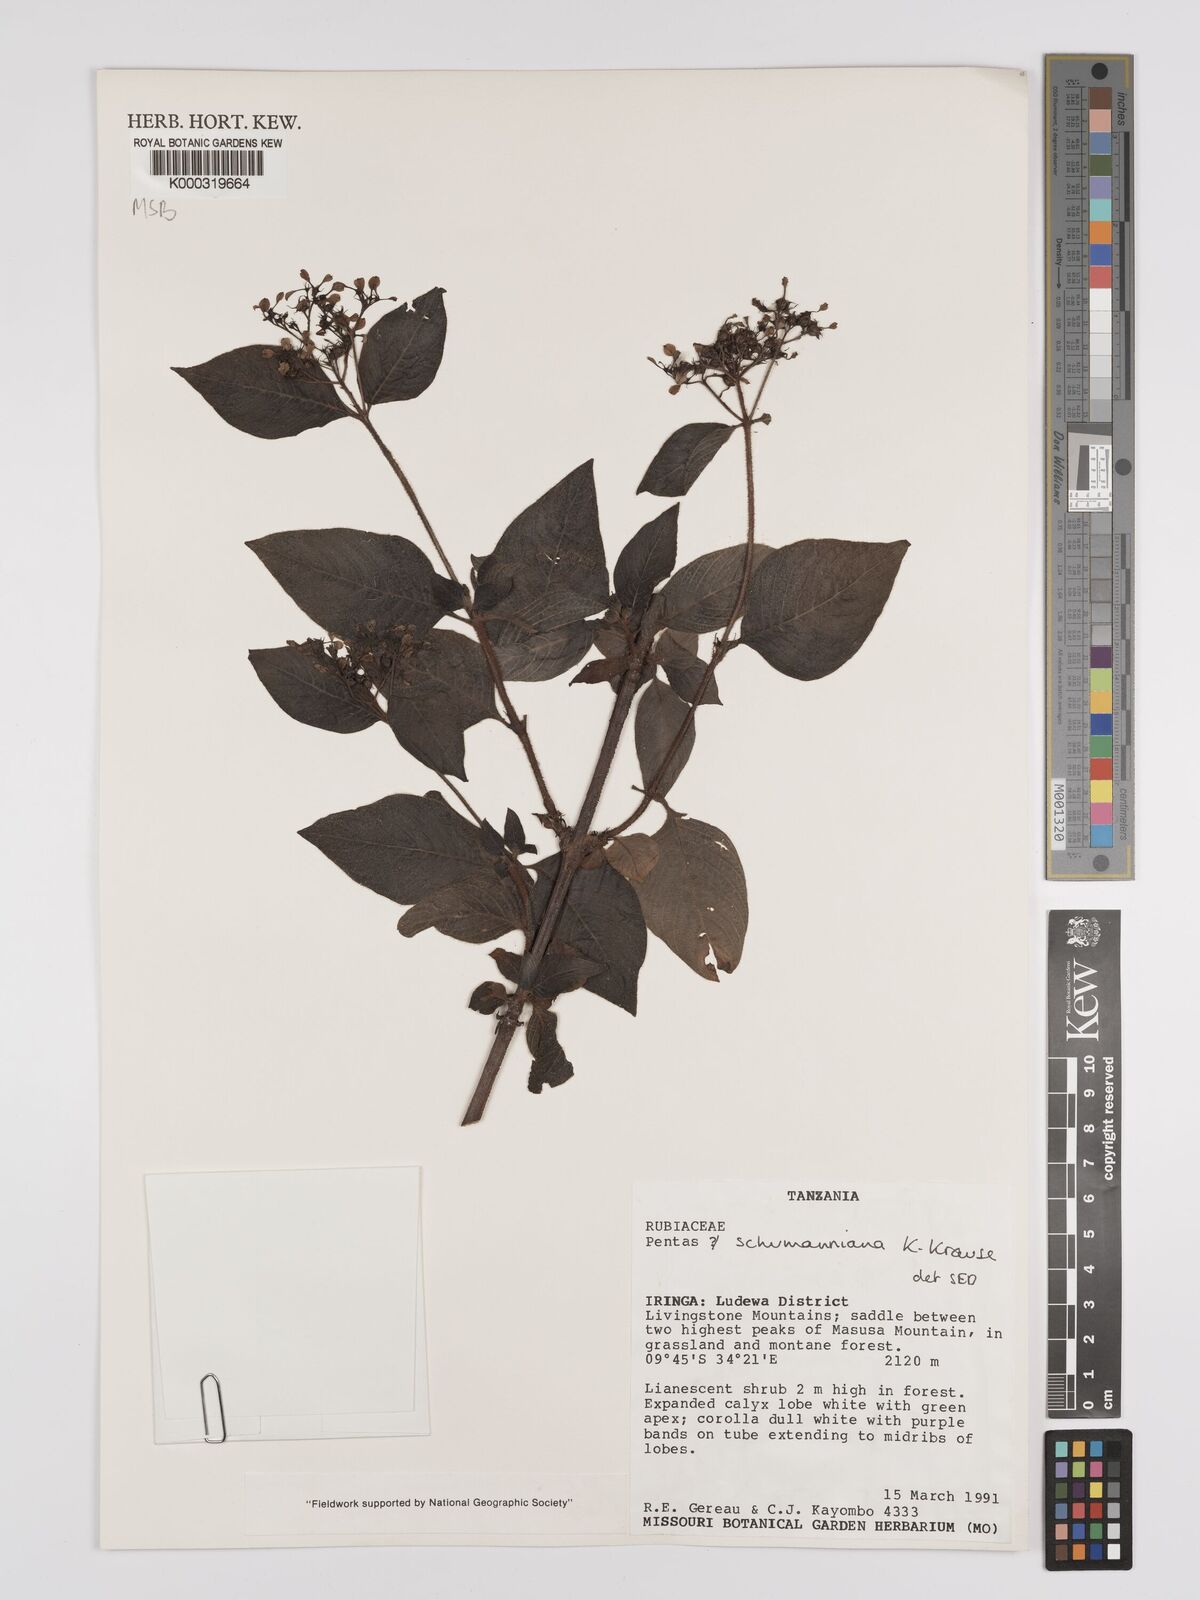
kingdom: Plantae
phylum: Tracheophyta
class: Magnoliopsida
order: Gentianales
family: Rubiaceae
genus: Phyllopentas
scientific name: Phyllopentas schumanniana
